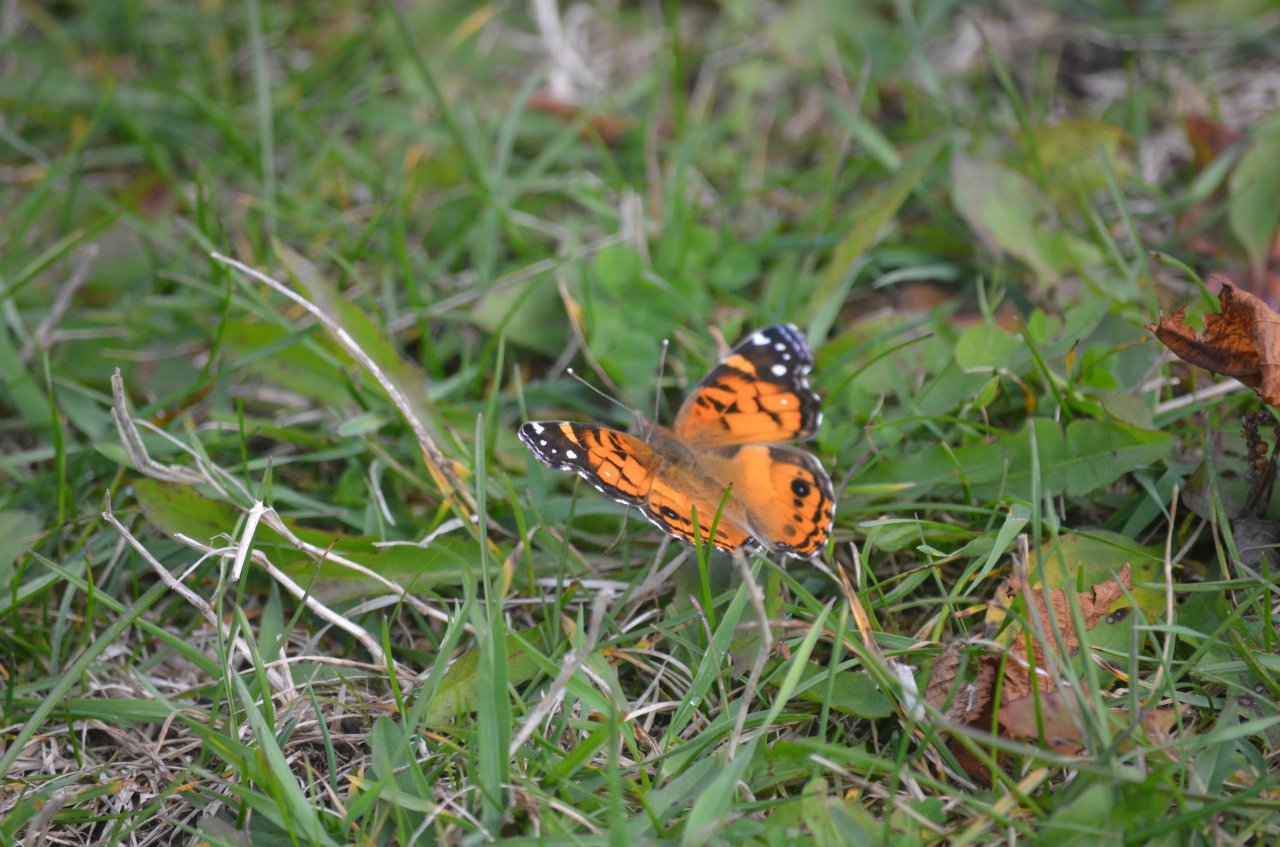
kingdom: Animalia
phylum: Arthropoda
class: Insecta
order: Lepidoptera
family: Nymphalidae
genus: Vanessa
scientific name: Vanessa virginiensis
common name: American Lady
